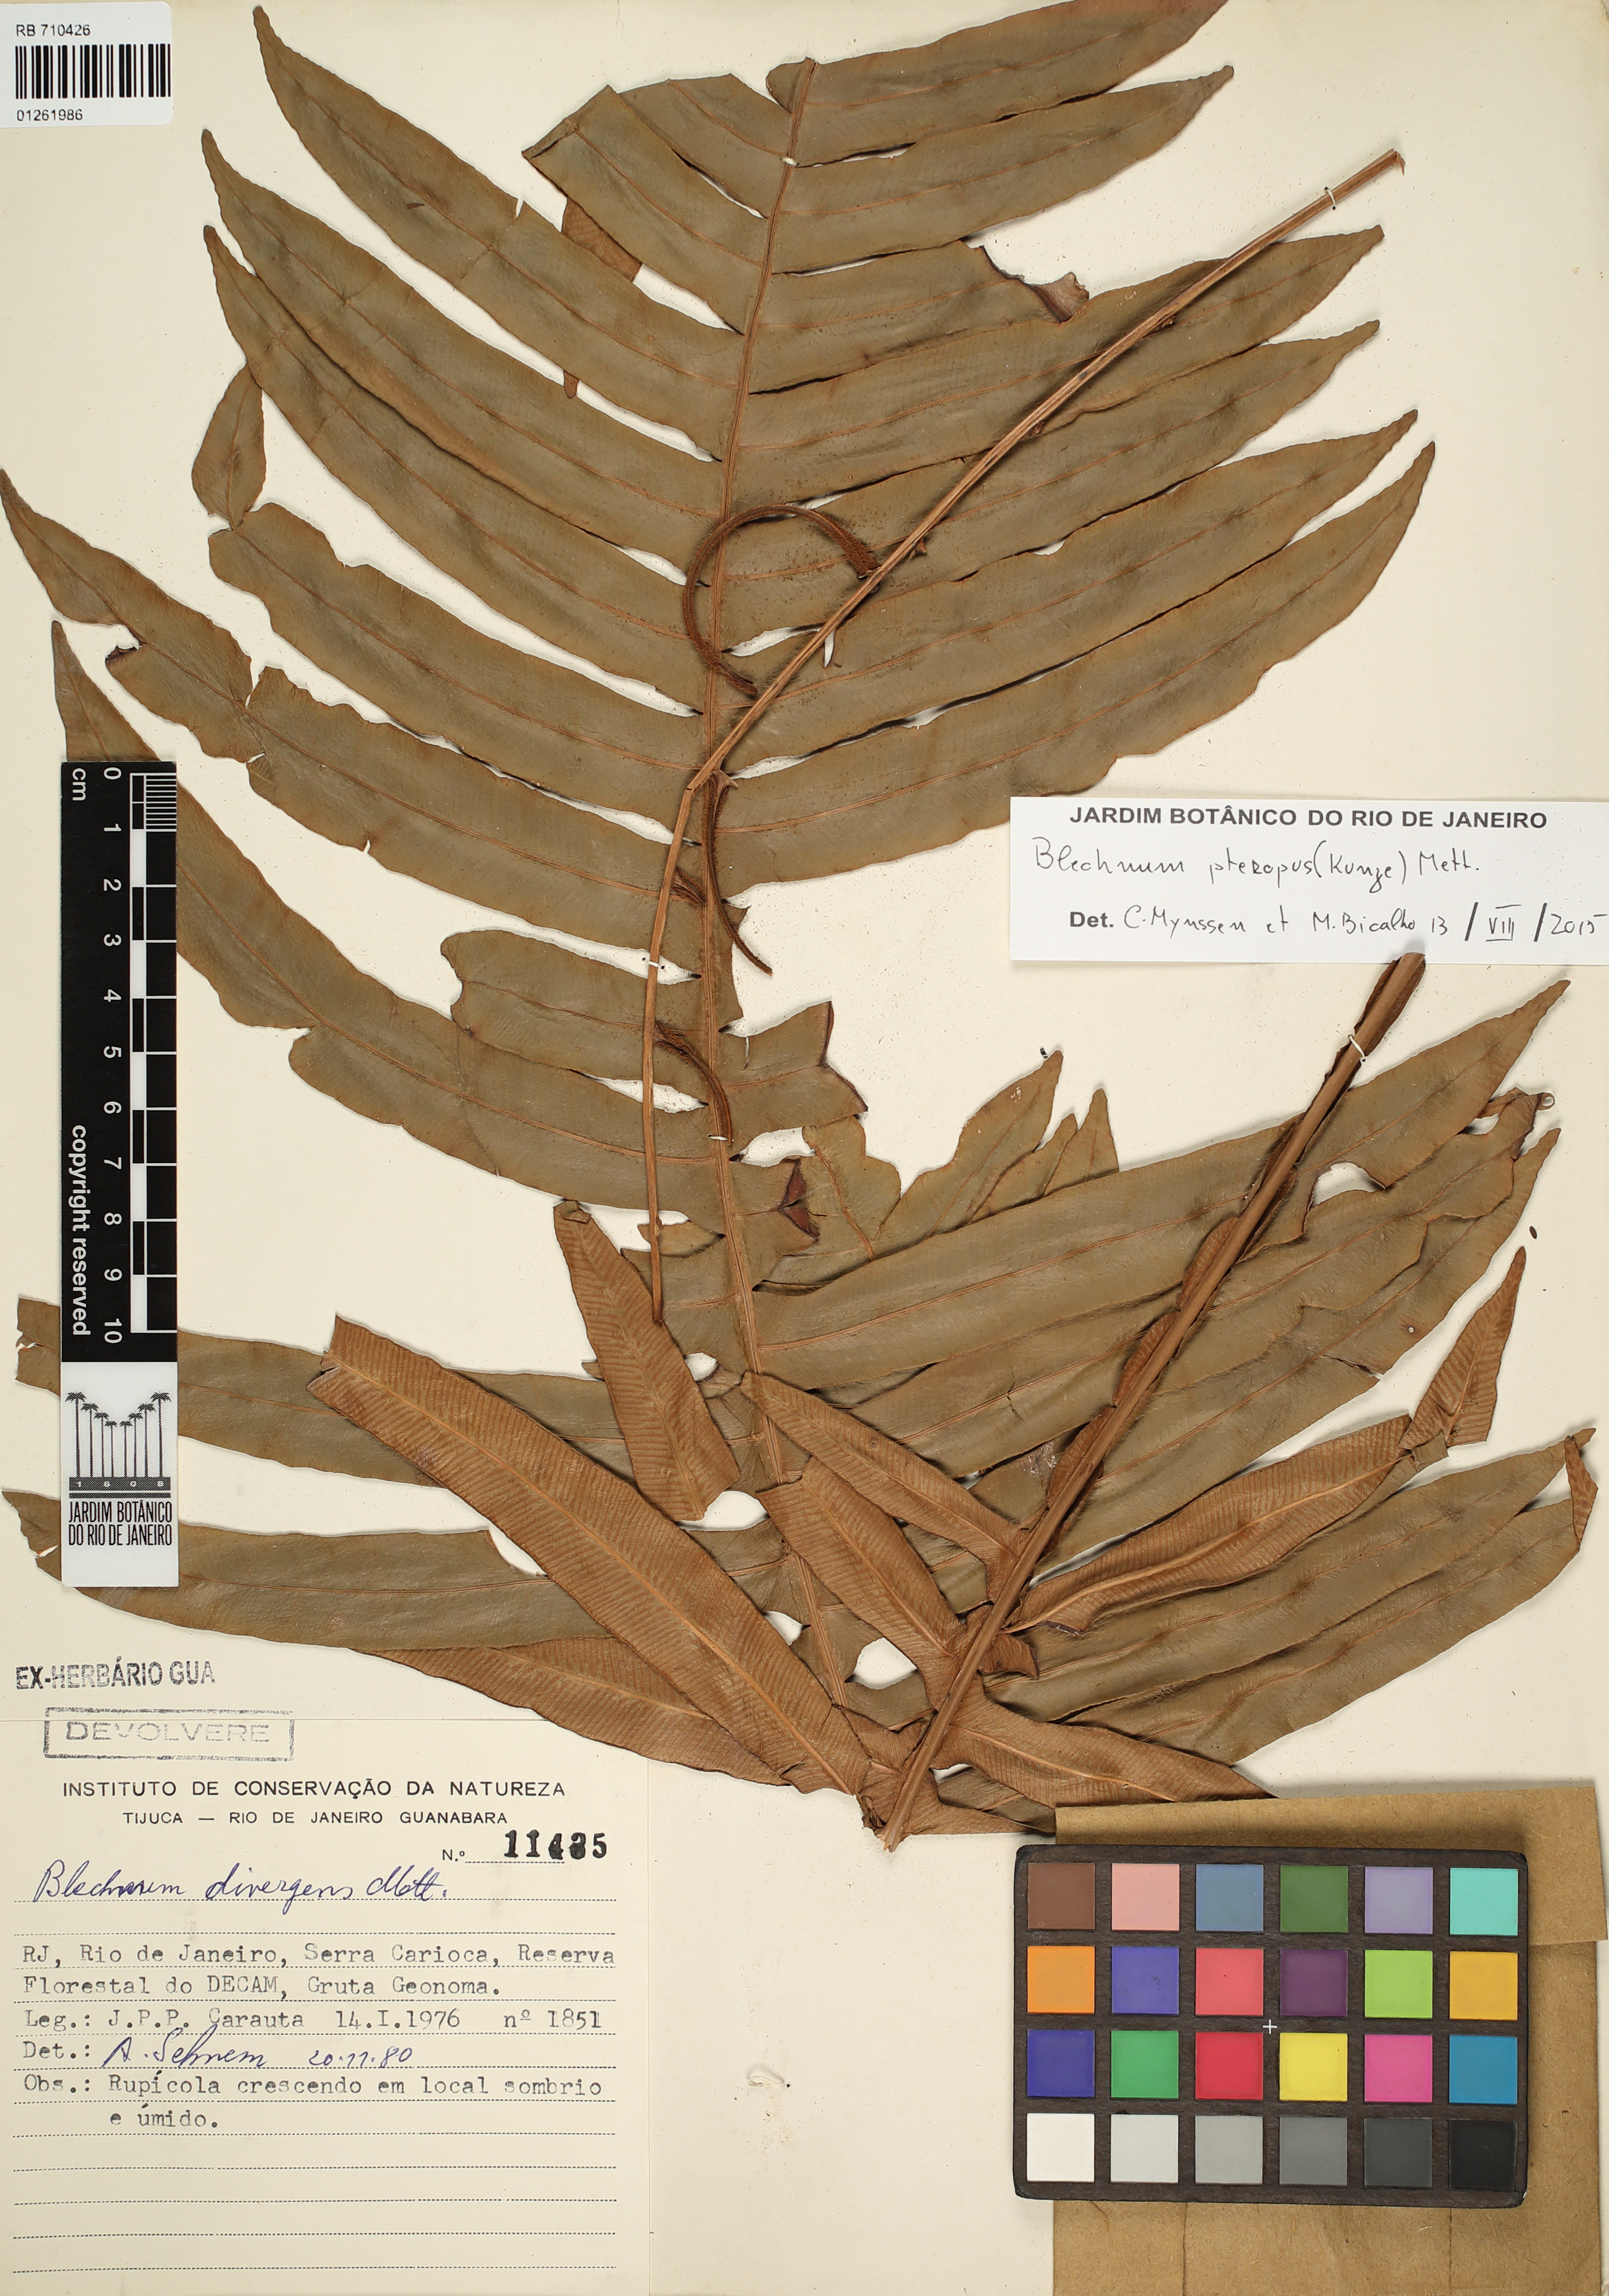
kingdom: Plantae
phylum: Tracheophyta
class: Polypodiopsida
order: Polypodiales
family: Blechnaceae
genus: Lomaridium
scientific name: Lomaridium pteropus
